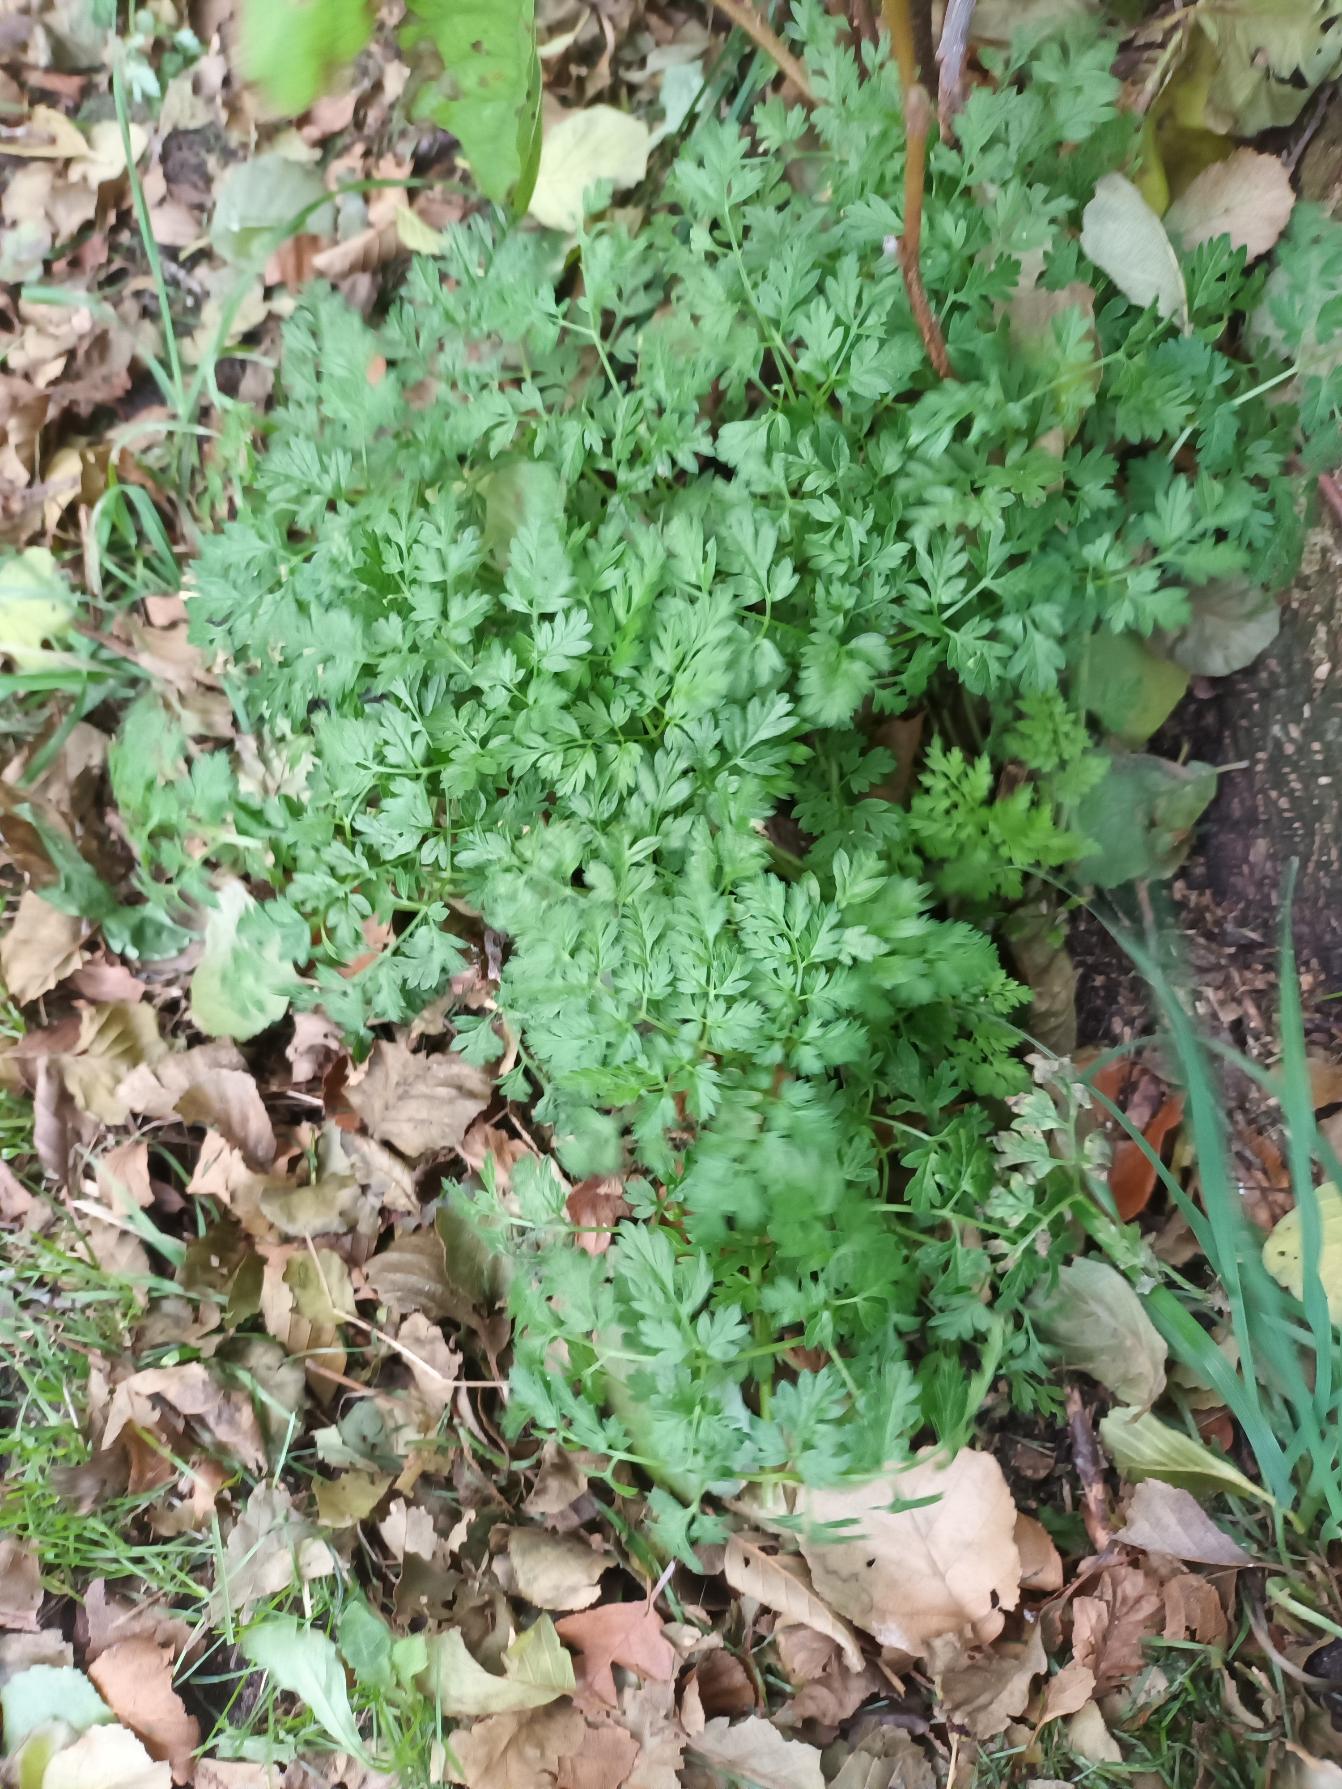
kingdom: Plantae
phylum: Tracheophyta
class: Magnoliopsida
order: Apiales
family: Apiaceae
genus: Anthriscus
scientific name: Anthriscus sylvestris
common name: Vild kørvel
